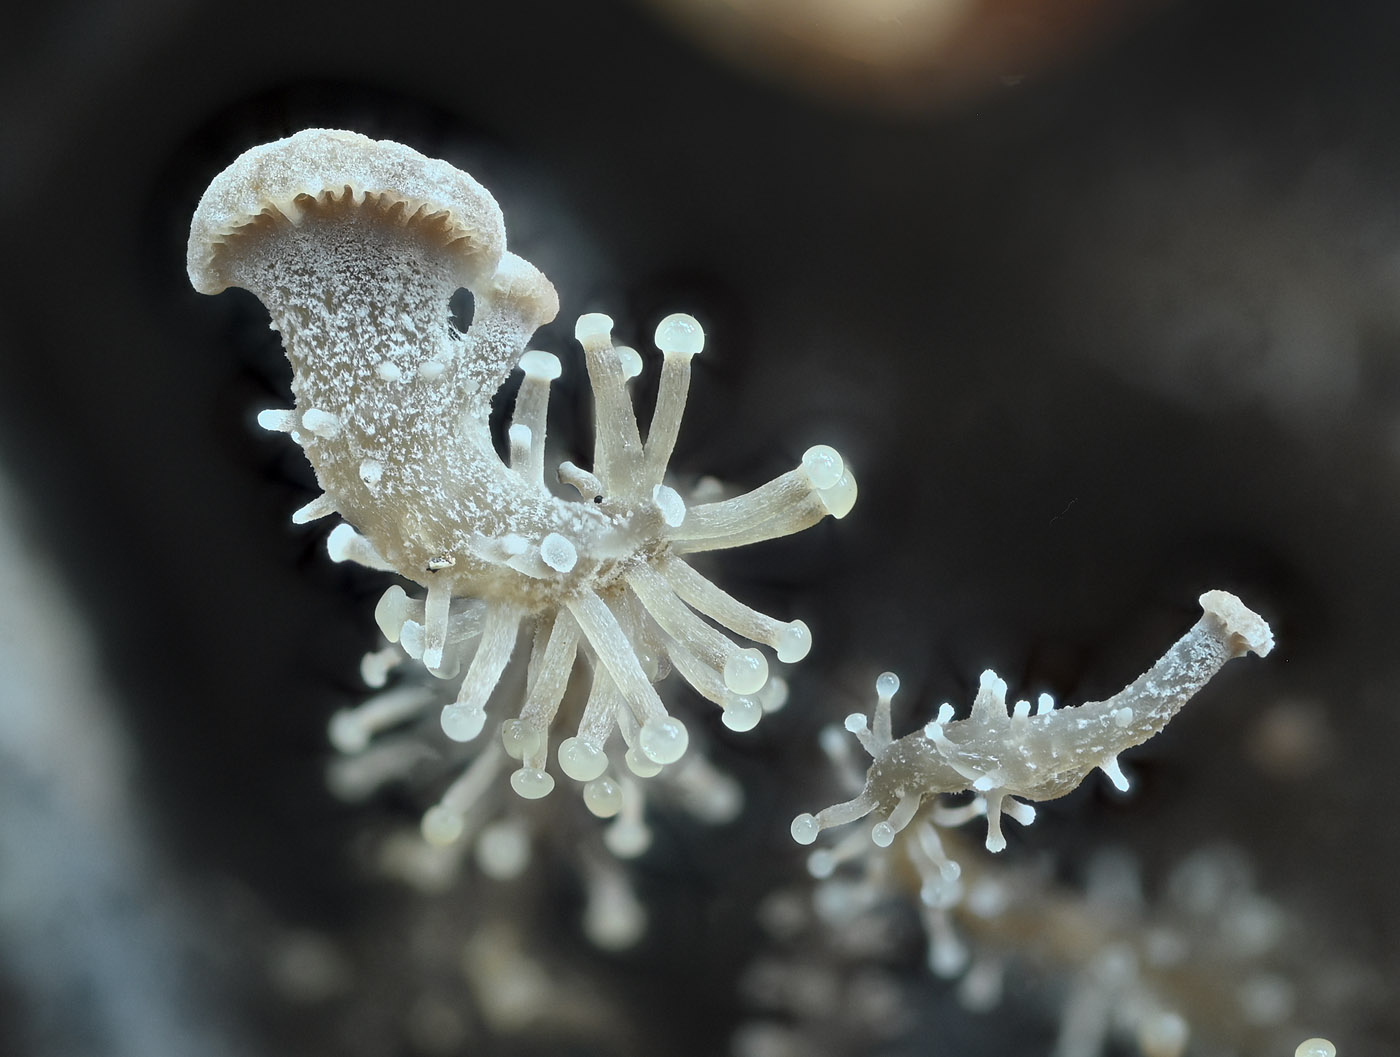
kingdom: Fungi
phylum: Basidiomycota
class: Agaricomycetes
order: Agaricales
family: Tricholomataceae
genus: Dendrocollybia
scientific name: Dendrocollybia racemosa
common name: grenet lighat
